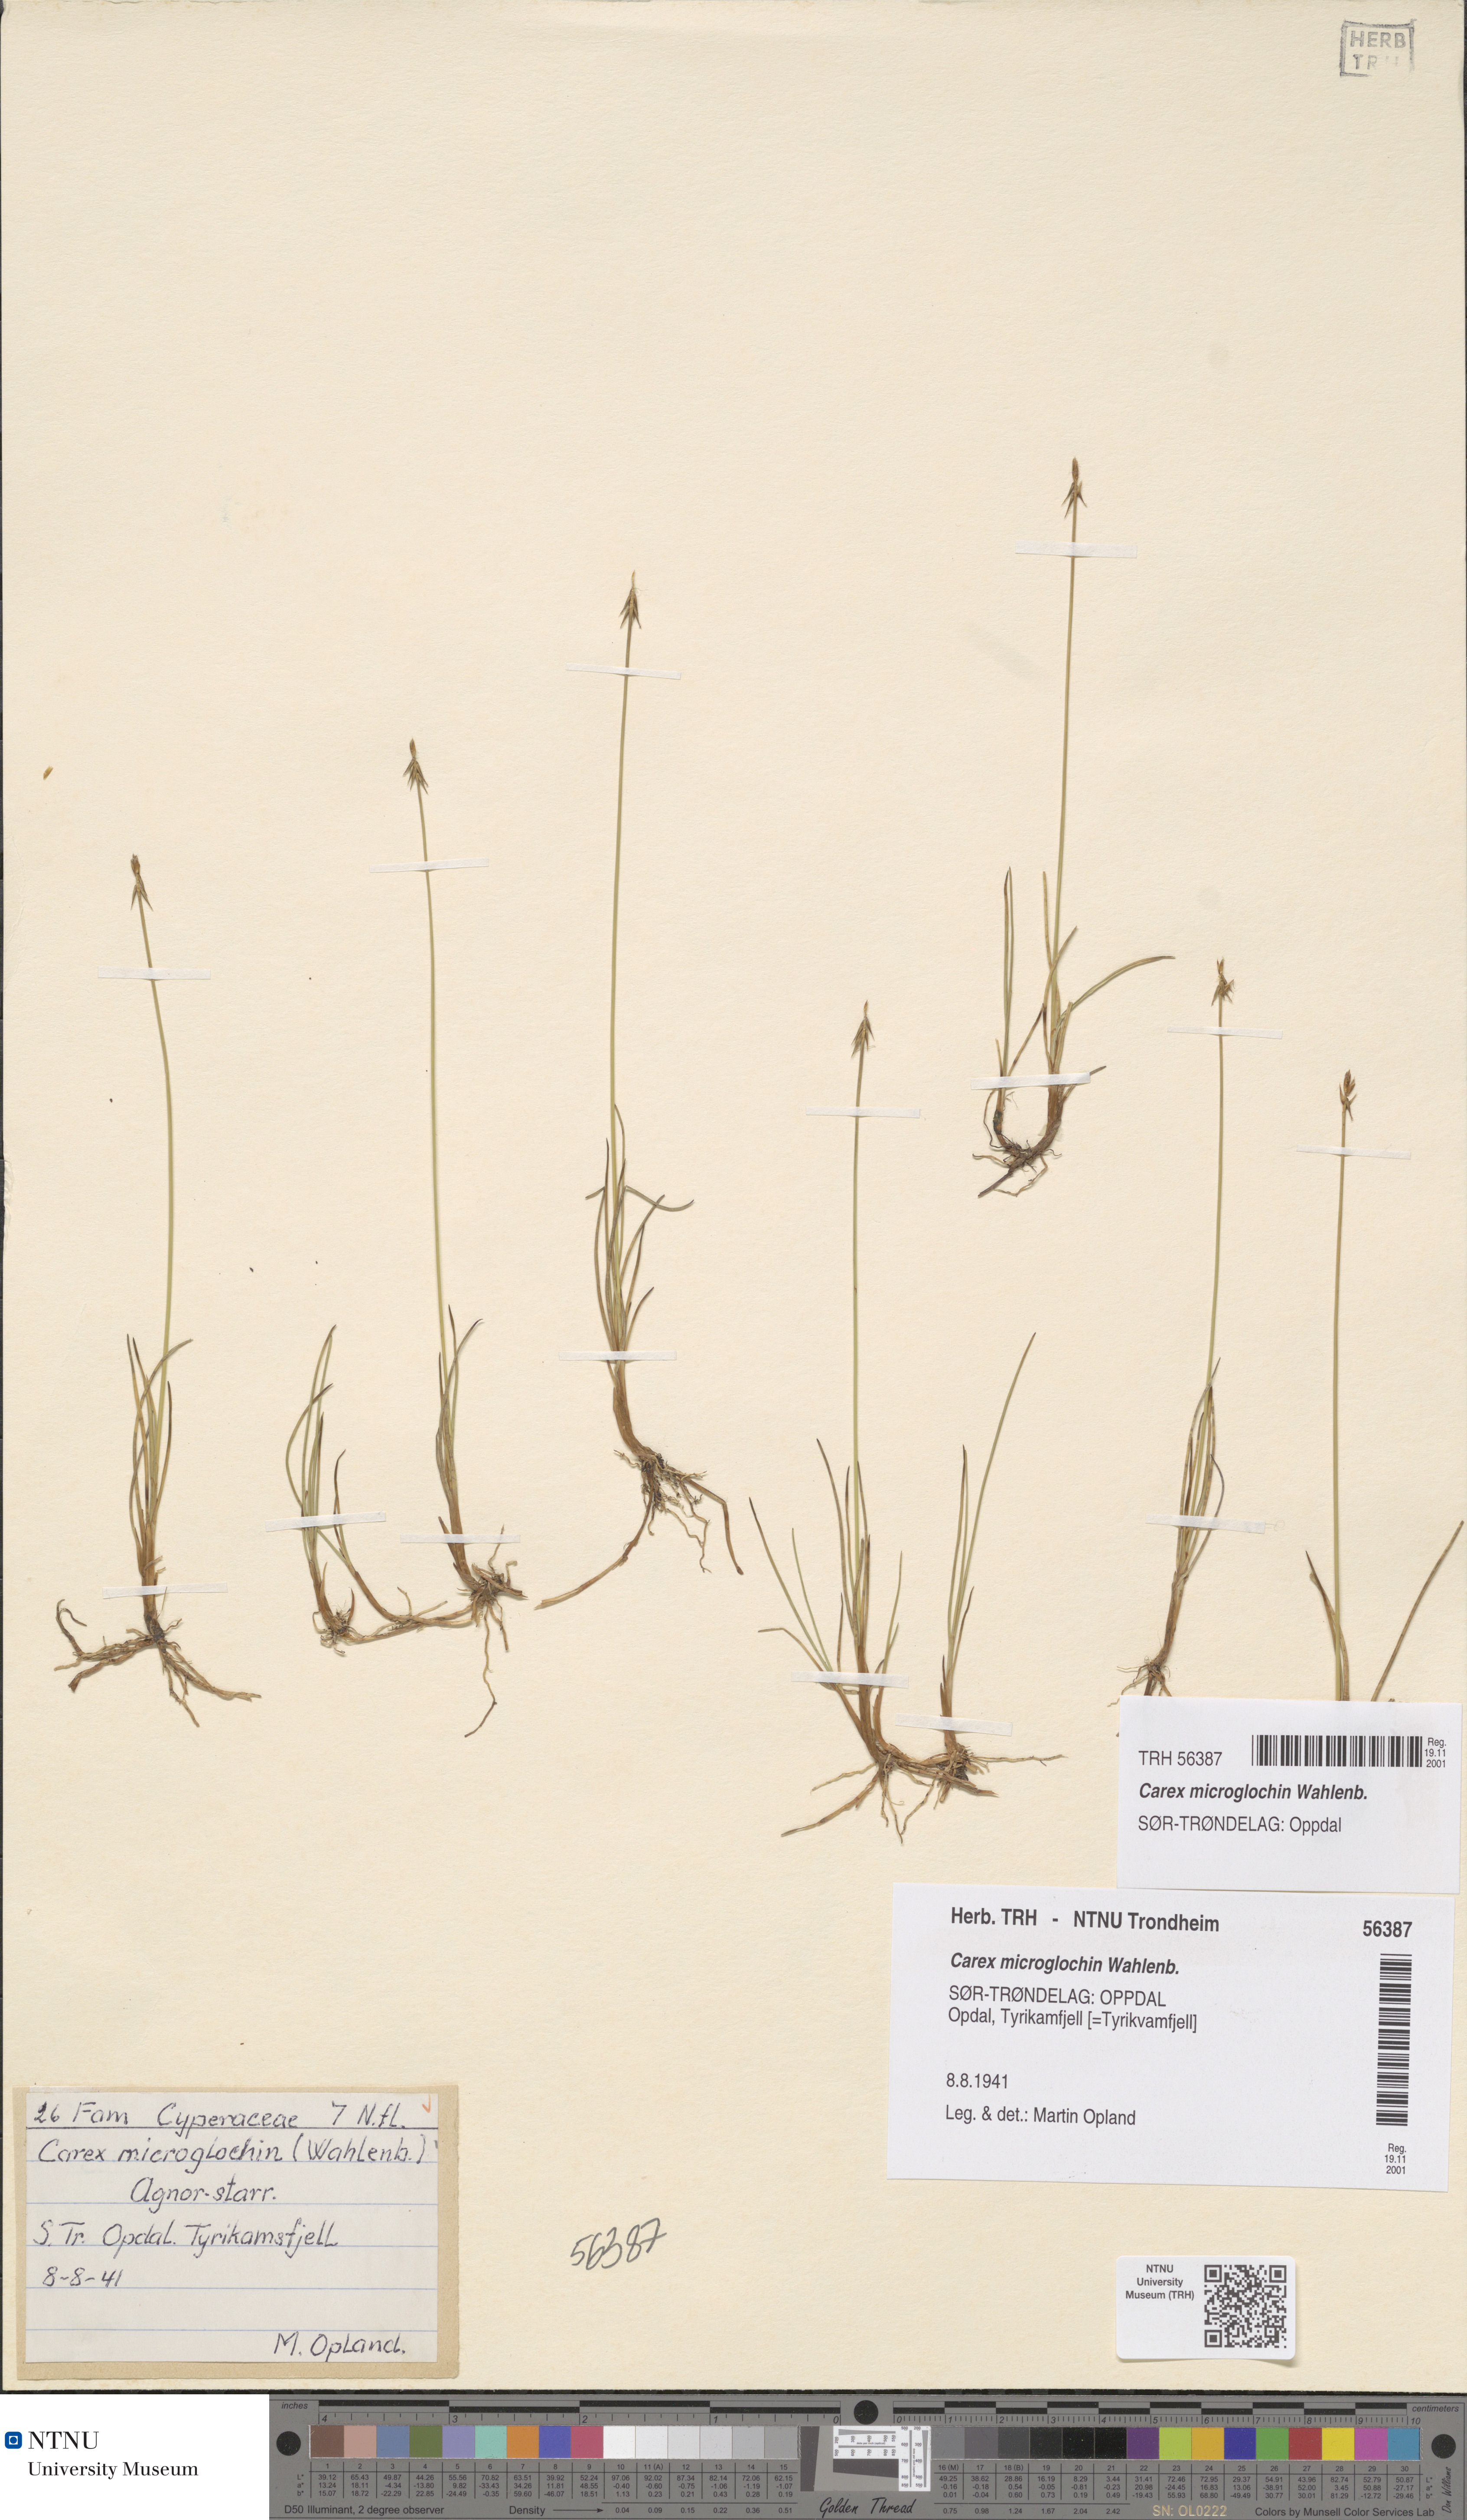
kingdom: Plantae
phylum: Tracheophyta
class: Liliopsida
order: Poales
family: Cyperaceae
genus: Carex
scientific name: Carex microglochin
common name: Bristle sedge
